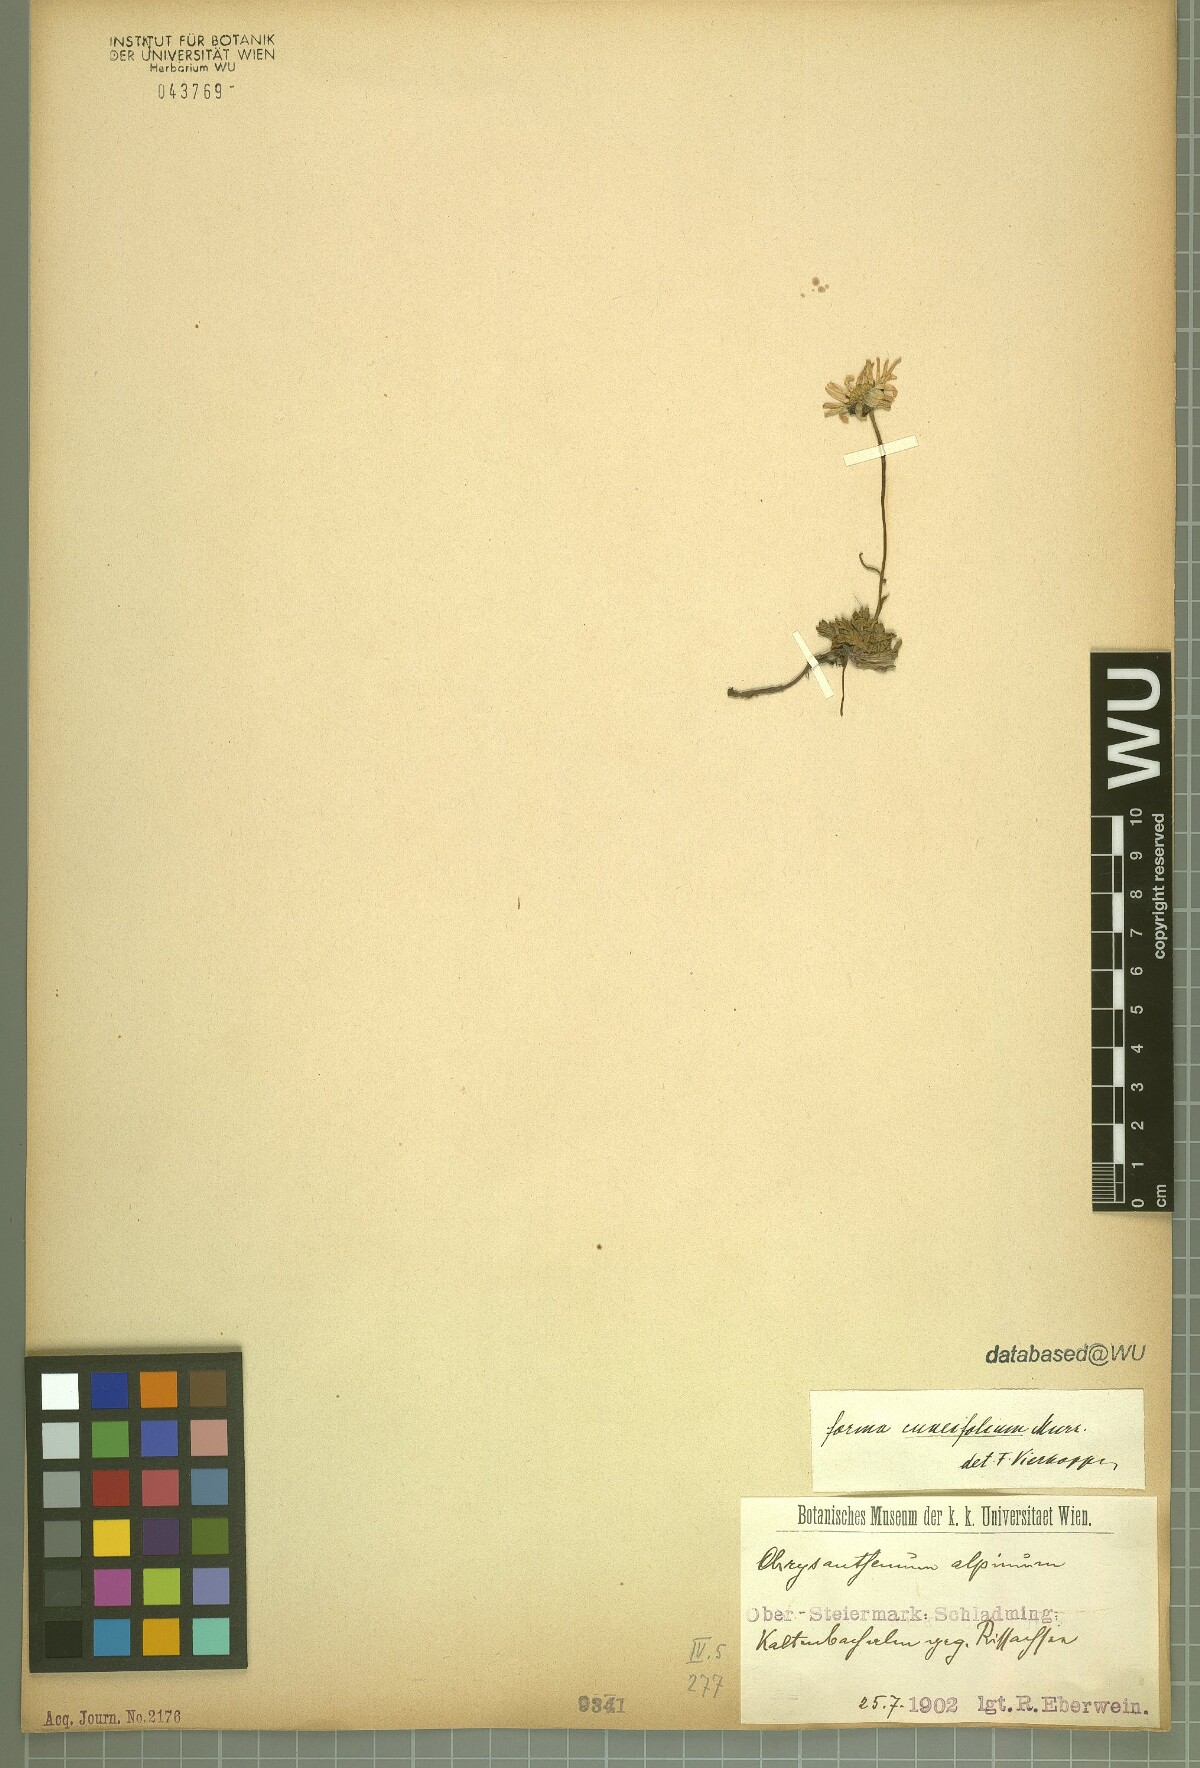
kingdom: Plantae
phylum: Tracheophyta
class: Magnoliopsida
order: Asterales
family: Asteraceae
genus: Leucanthemopsis
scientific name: Leucanthemopsis alpina
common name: Alpine moon daisy
